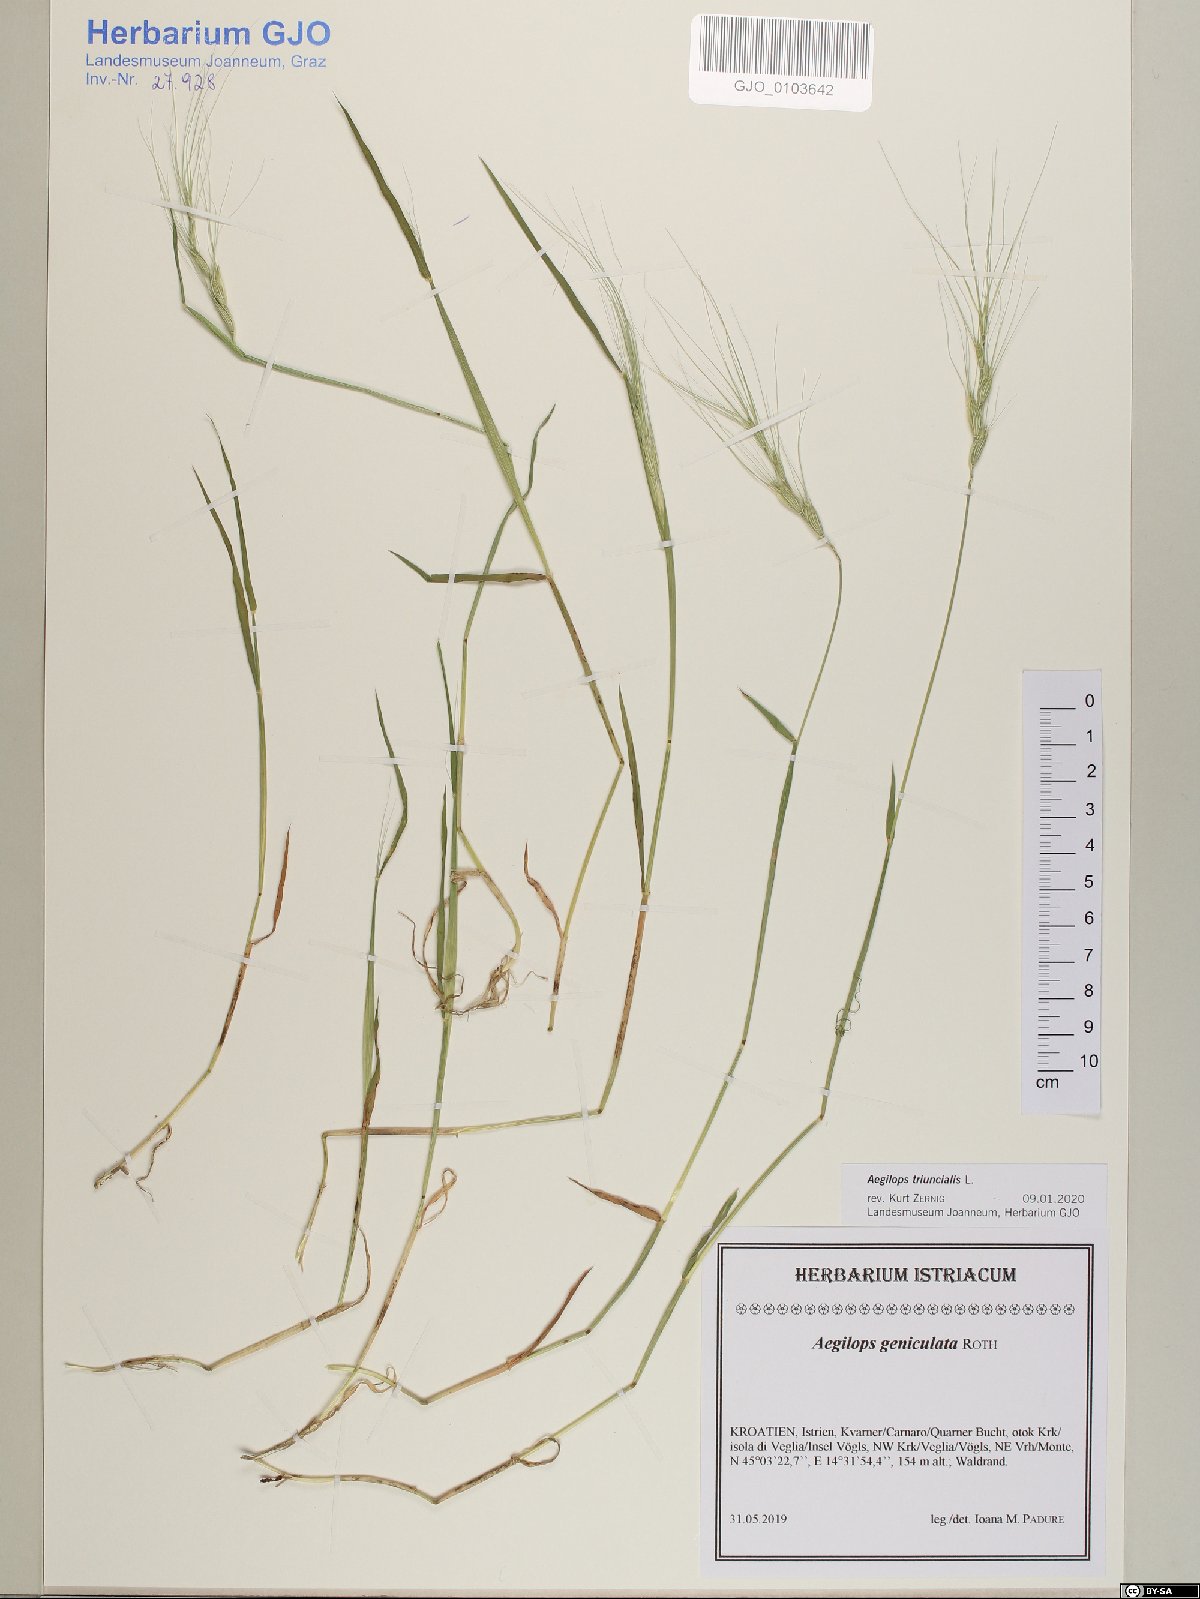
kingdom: Plantae
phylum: Tracheophyta
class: Liliopsida
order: Poales
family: Poaceae
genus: Aegilops
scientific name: Aegilops triuncialis
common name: Barb goat grass
